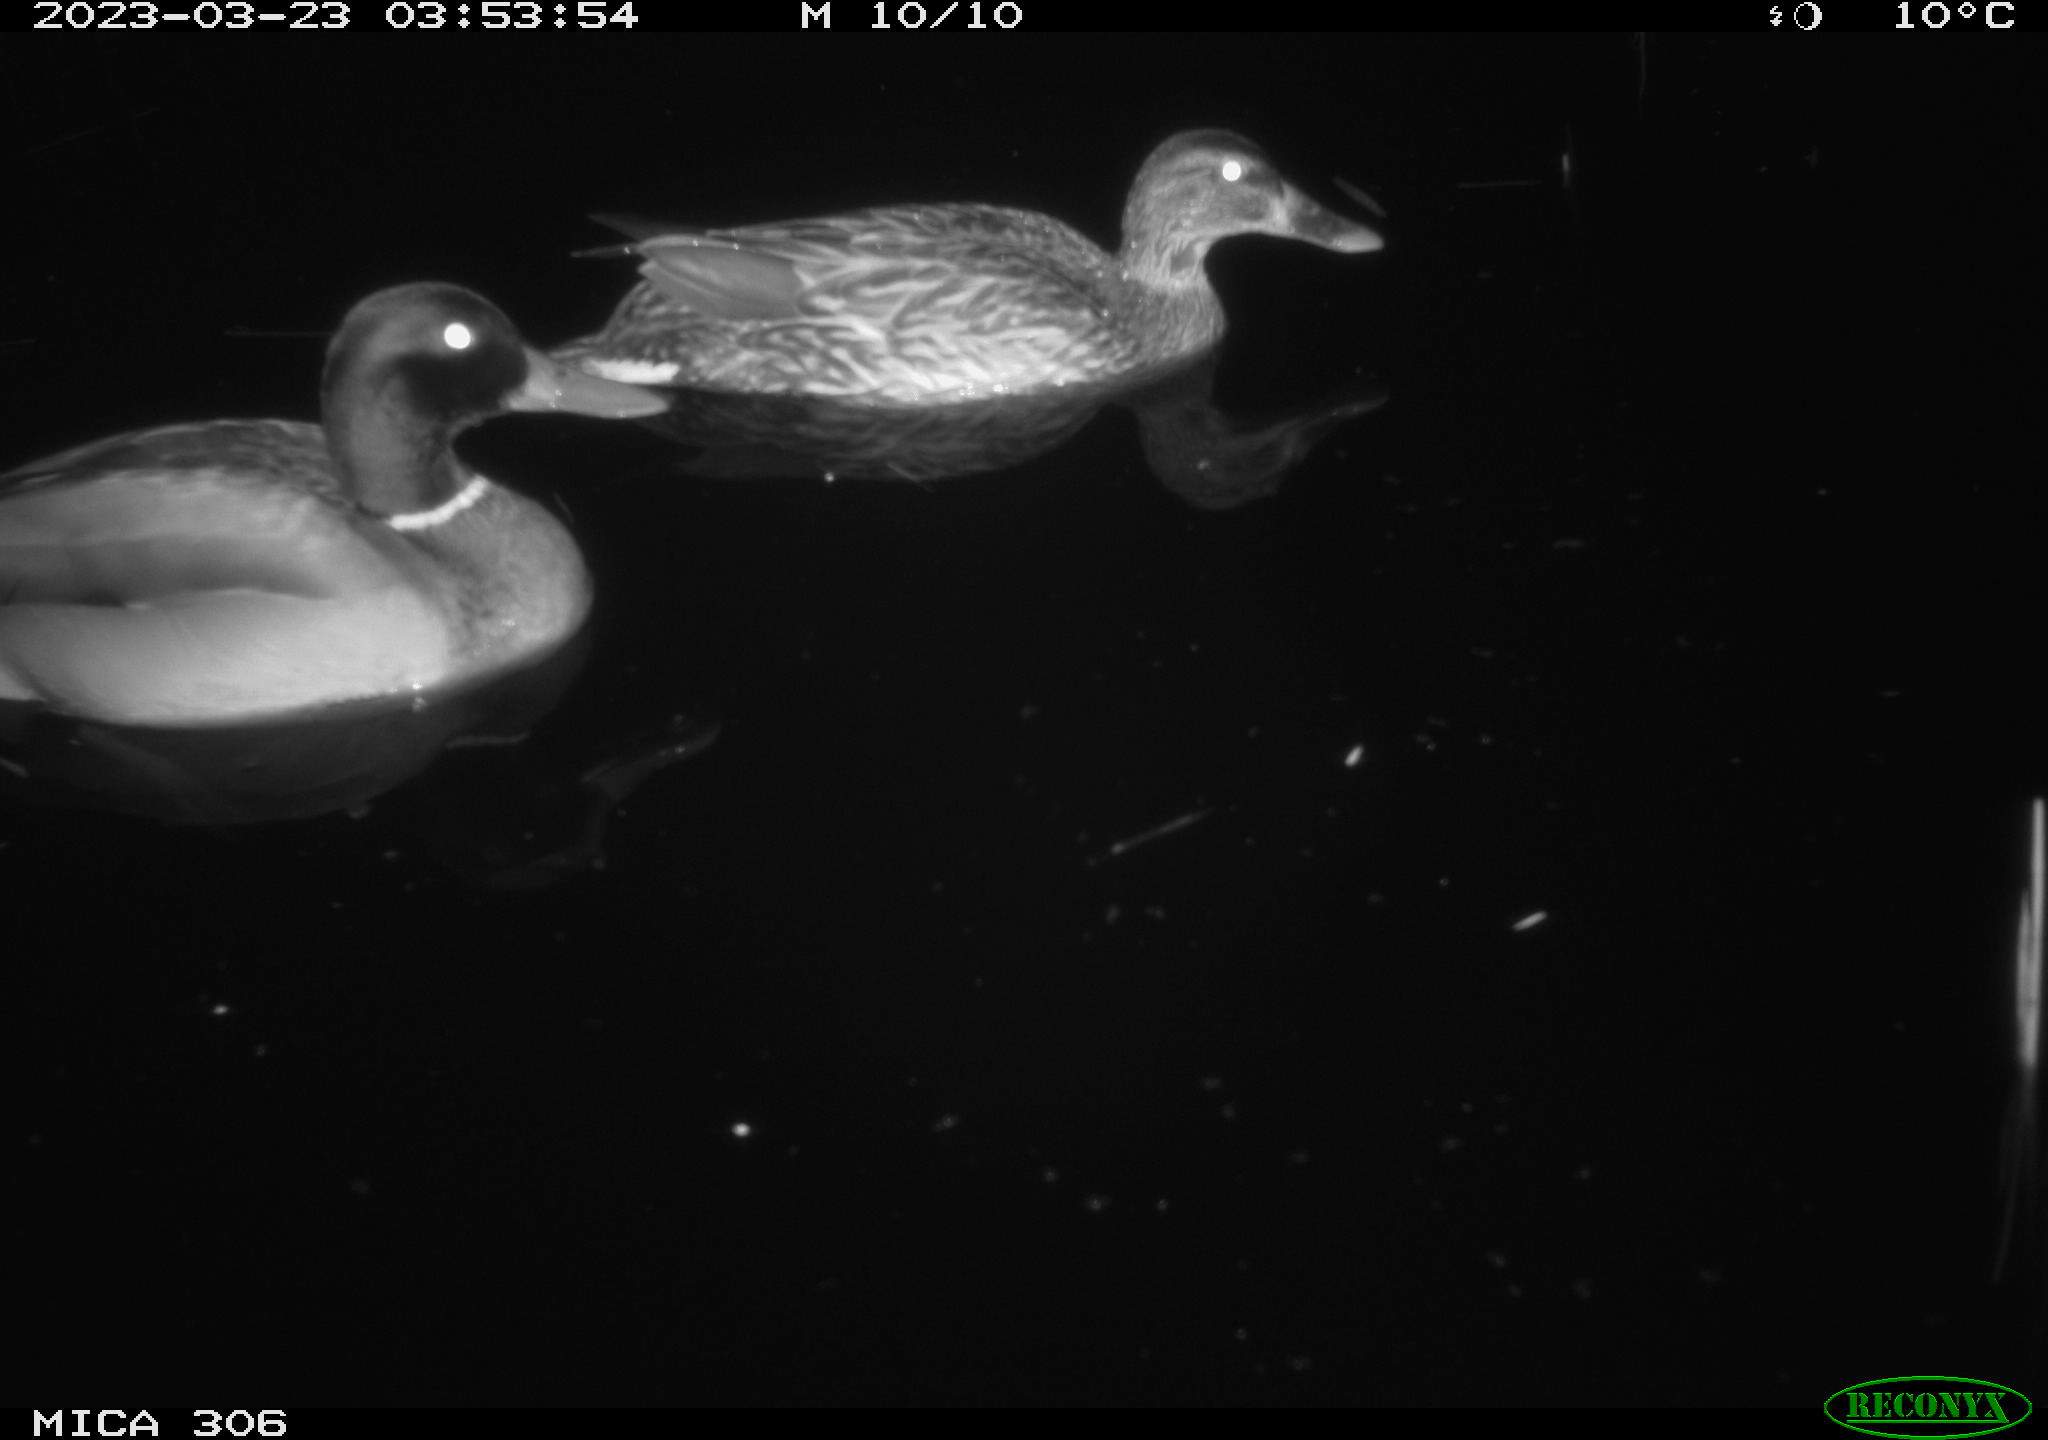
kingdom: Animalia
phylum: Chordata
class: Aves
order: Anseriformes
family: Anatidae
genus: Anas
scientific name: Anas
